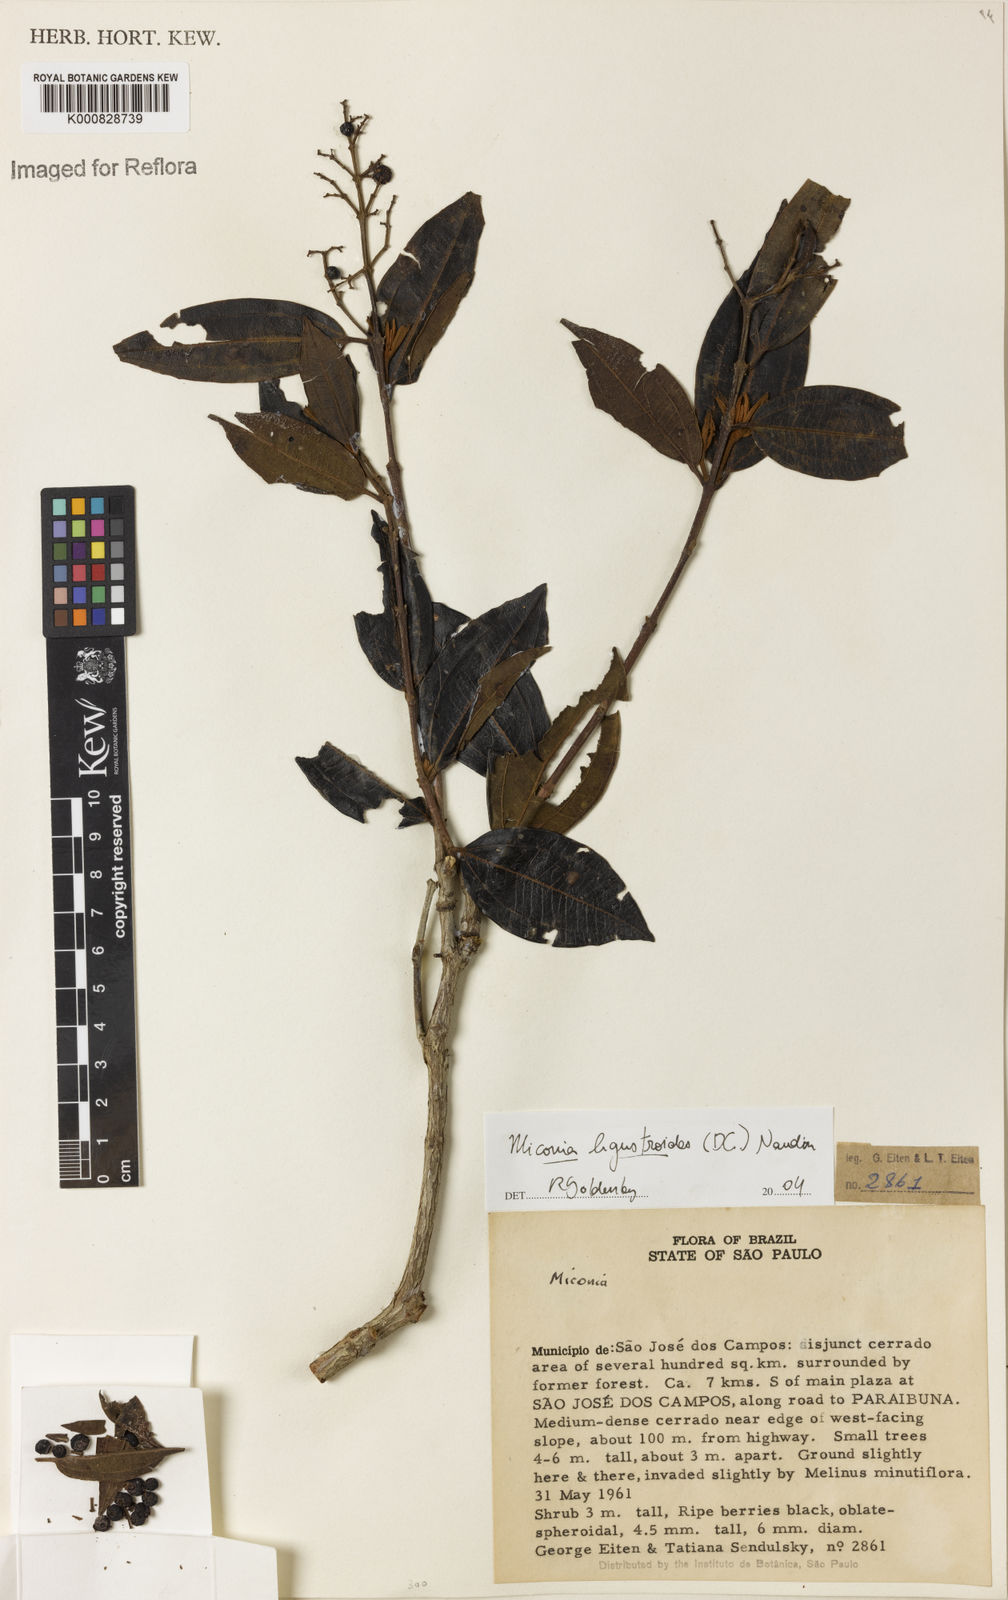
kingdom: Plantae
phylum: Tracheophyta
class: Magnoliopsida
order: Myrtales
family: Melastomataceae
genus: Miconia
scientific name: Miconia ligustroides
